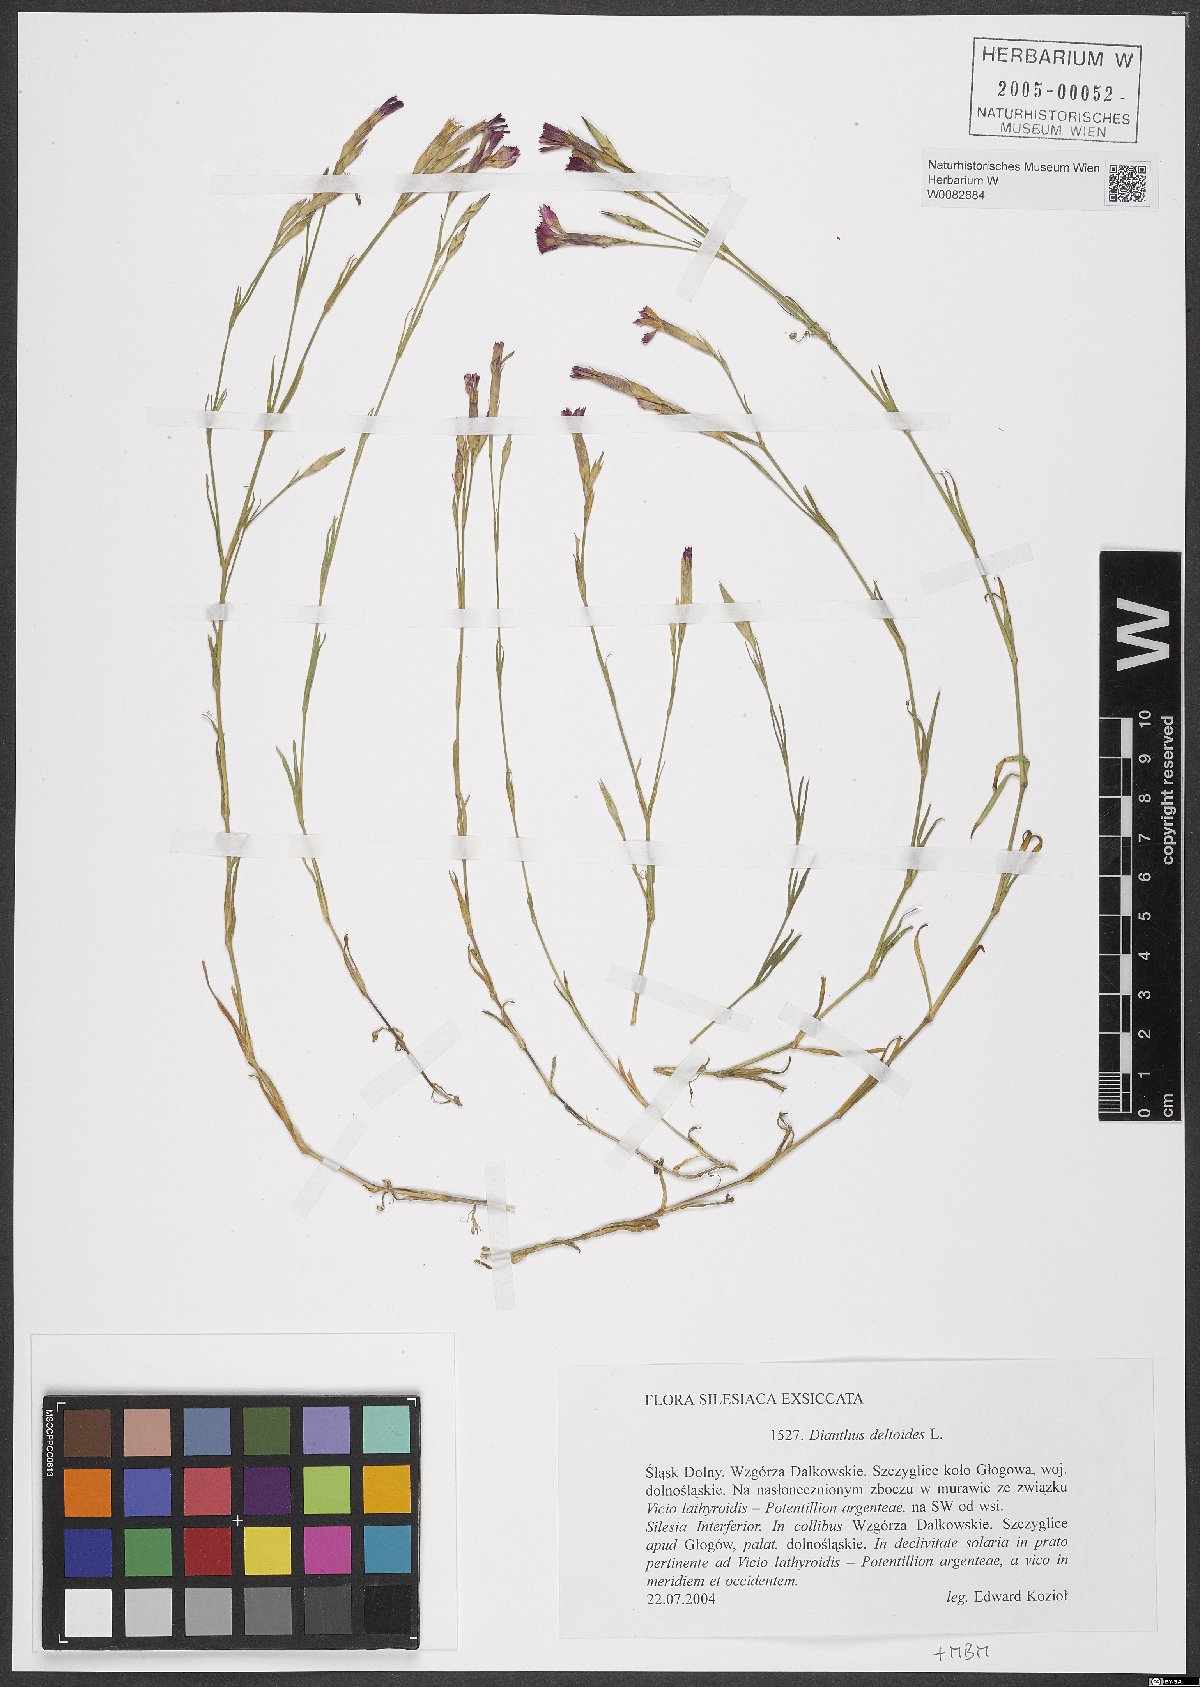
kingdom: Plantae
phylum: Tracheophyta
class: Magnoliopsida
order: Caryophyllales
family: Caryophyllaceae
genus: Dianthus
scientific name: Dianthus deltoides
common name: Maiden pink
